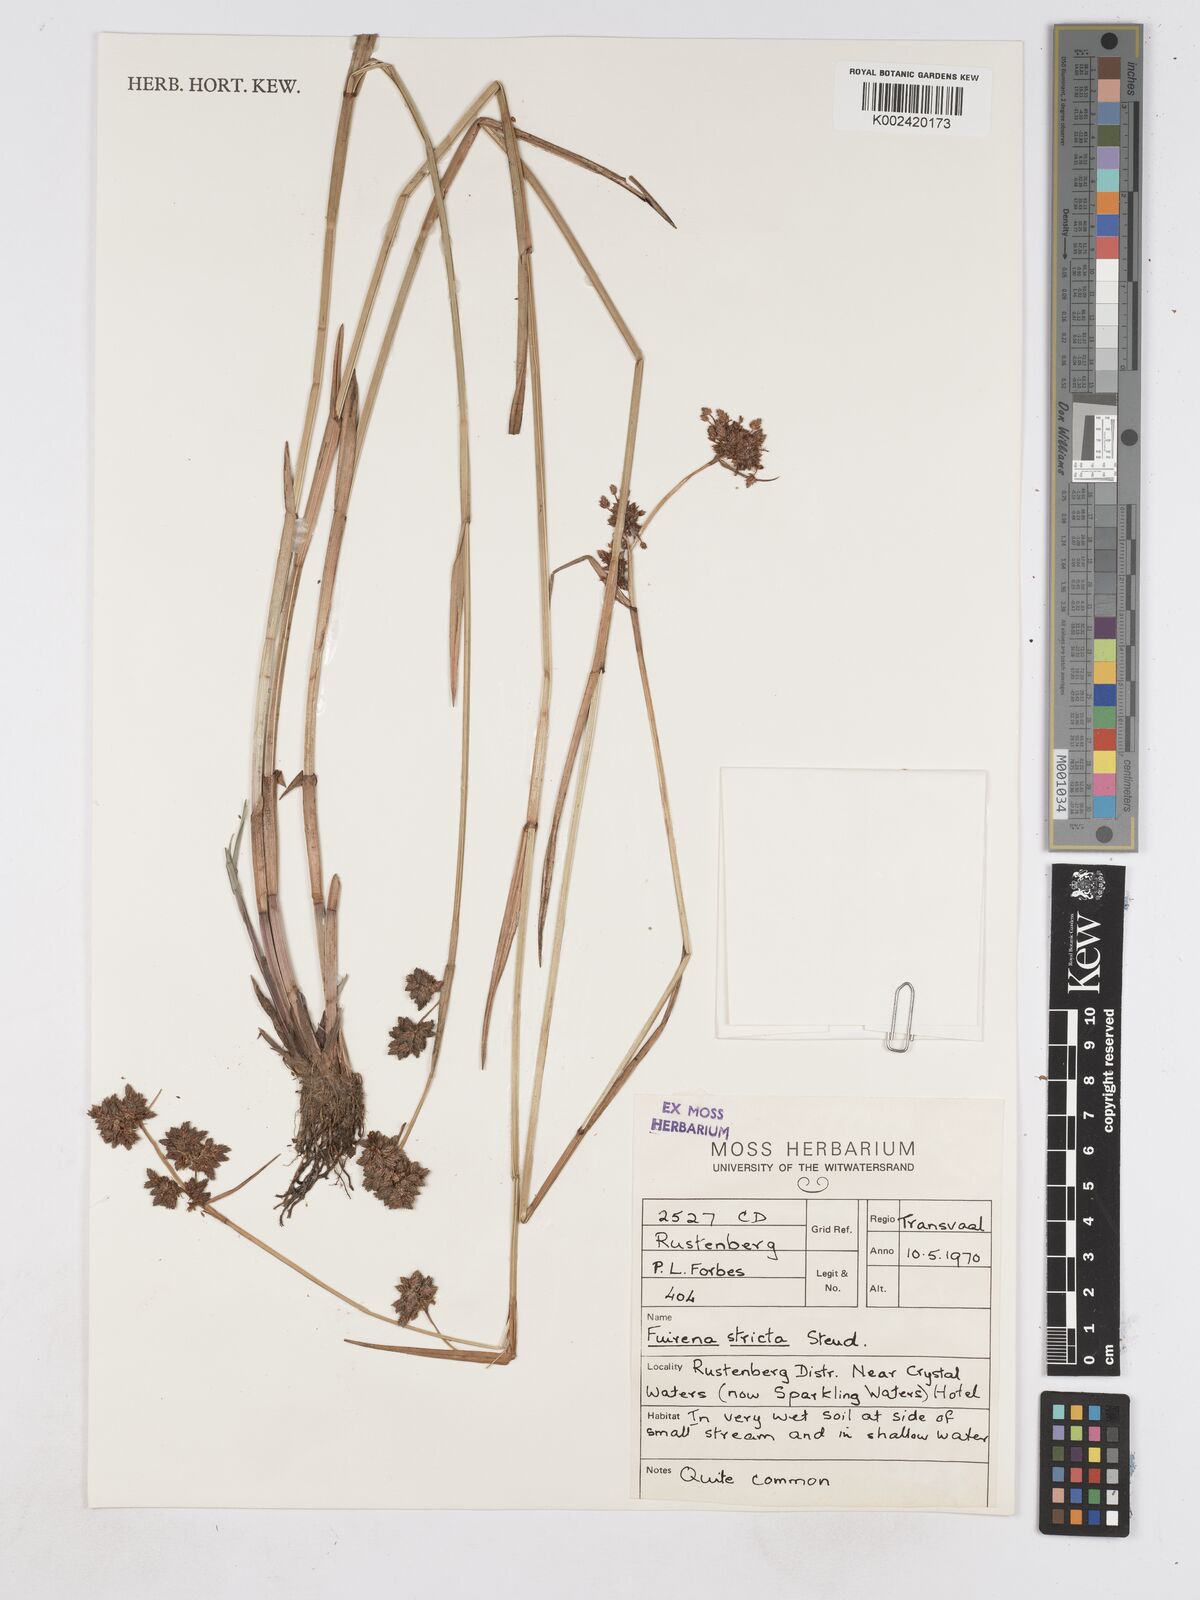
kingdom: Plantae
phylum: Tracheophyta
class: Liliopsida
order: Poales
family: Cyperaceae
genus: Fuirena
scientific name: Fuirena stricta
